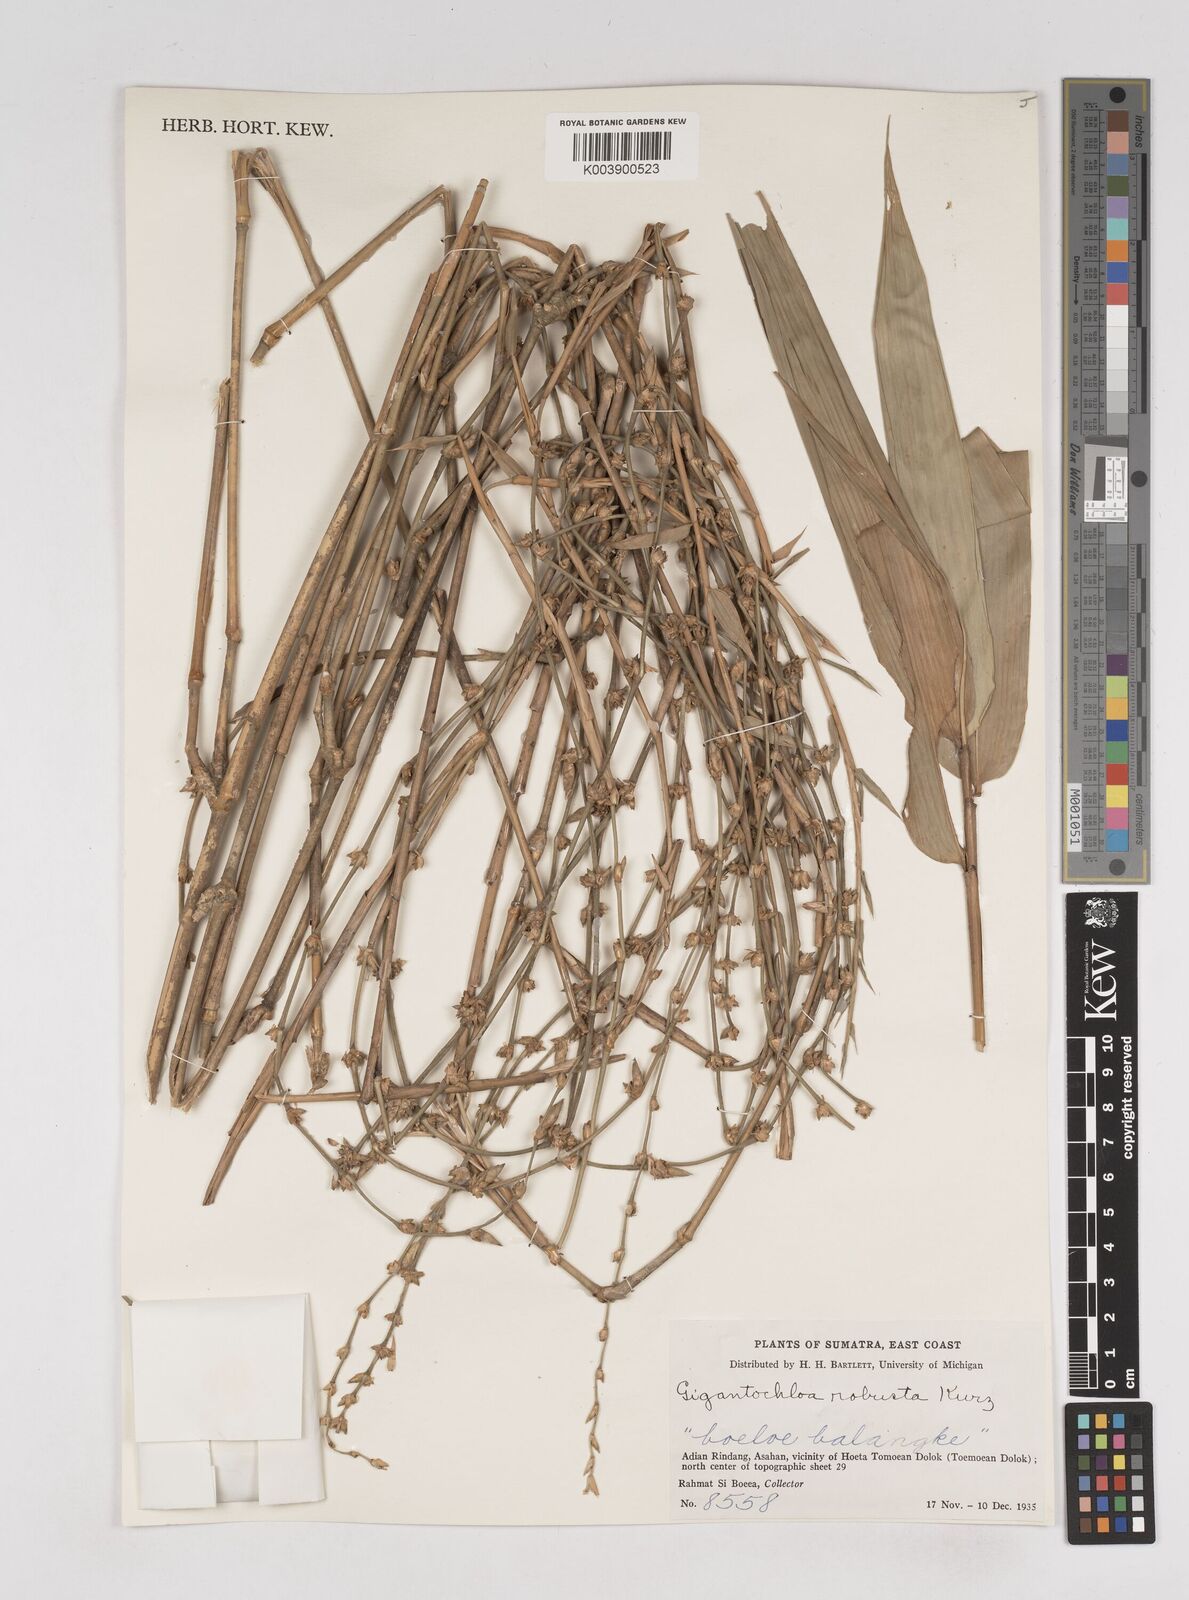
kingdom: Plantae
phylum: Tracheophyta
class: Liliopsida
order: Poales
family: Poaceae
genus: Gigantochloa
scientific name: Gigantochloa
